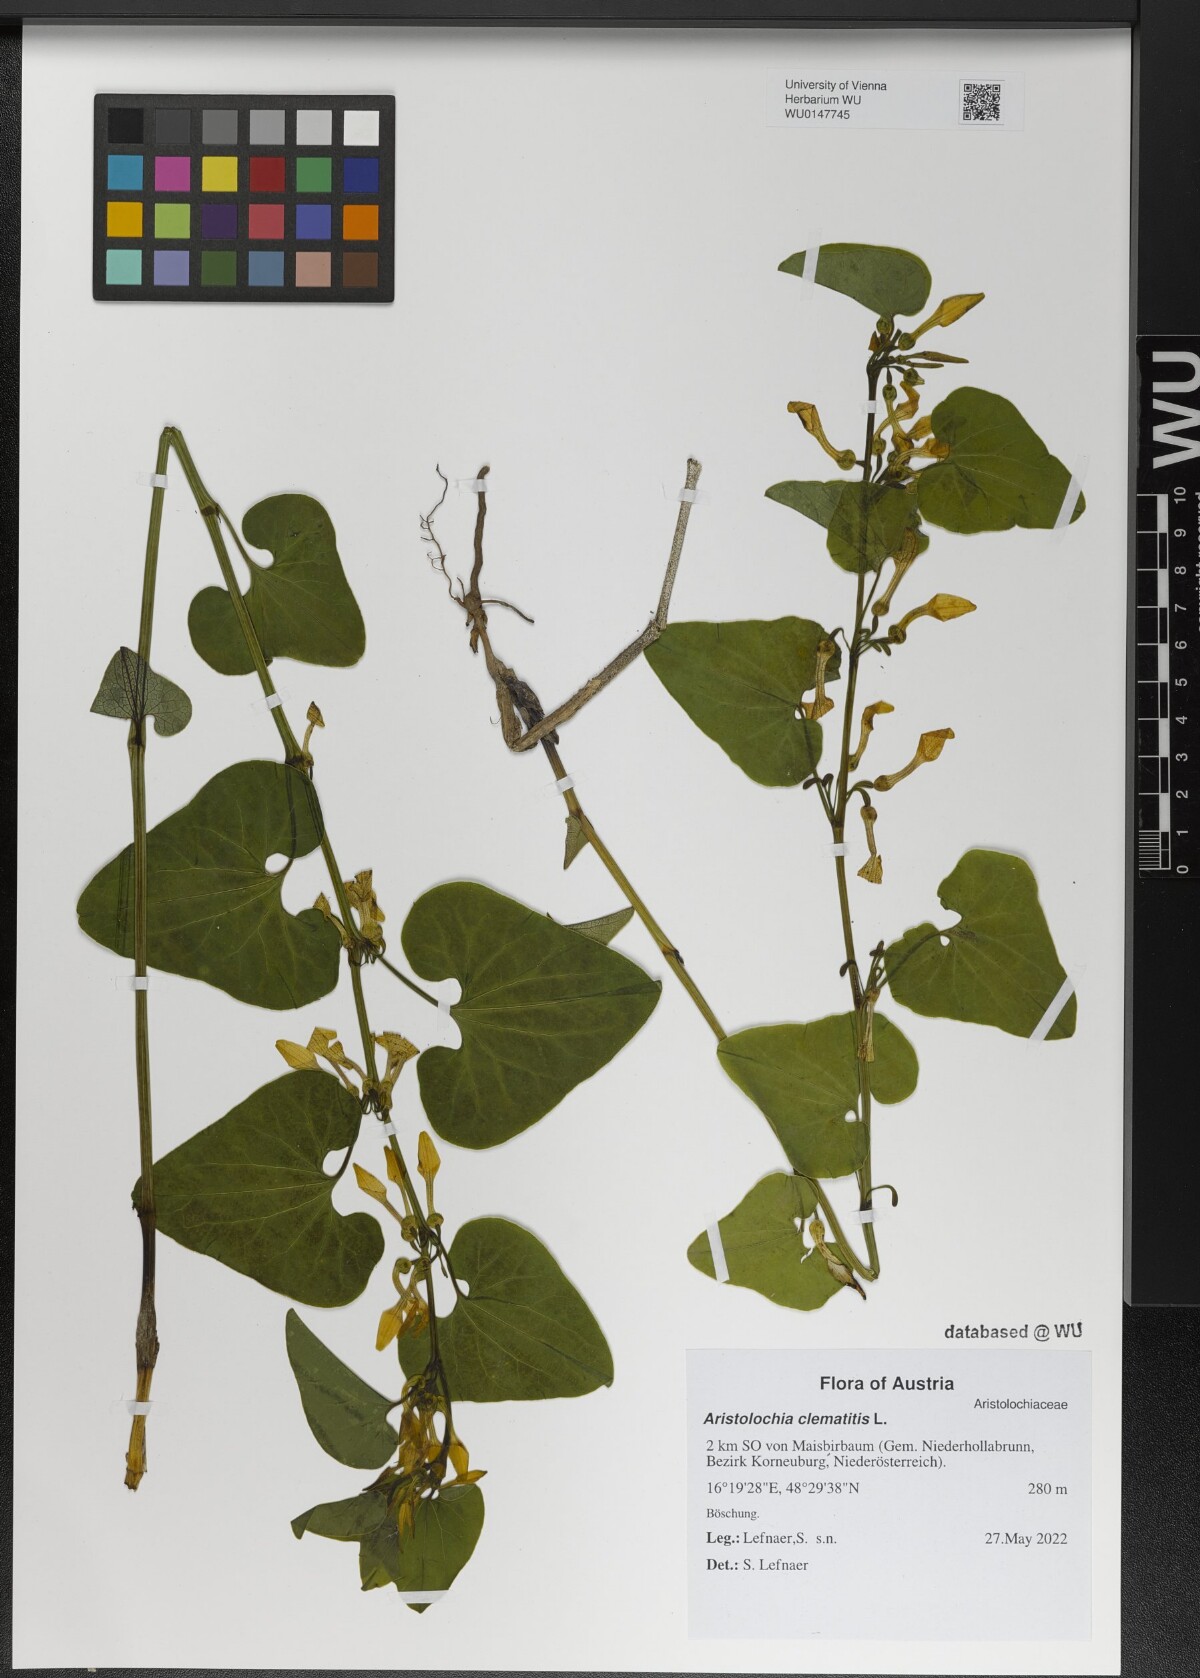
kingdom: Plantae
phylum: Tracheophyta
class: Magnoliopsida
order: Piperales
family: Aristolochiaceae
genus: Aristolochia
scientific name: Aristolochia clematitis
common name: Birthwort
